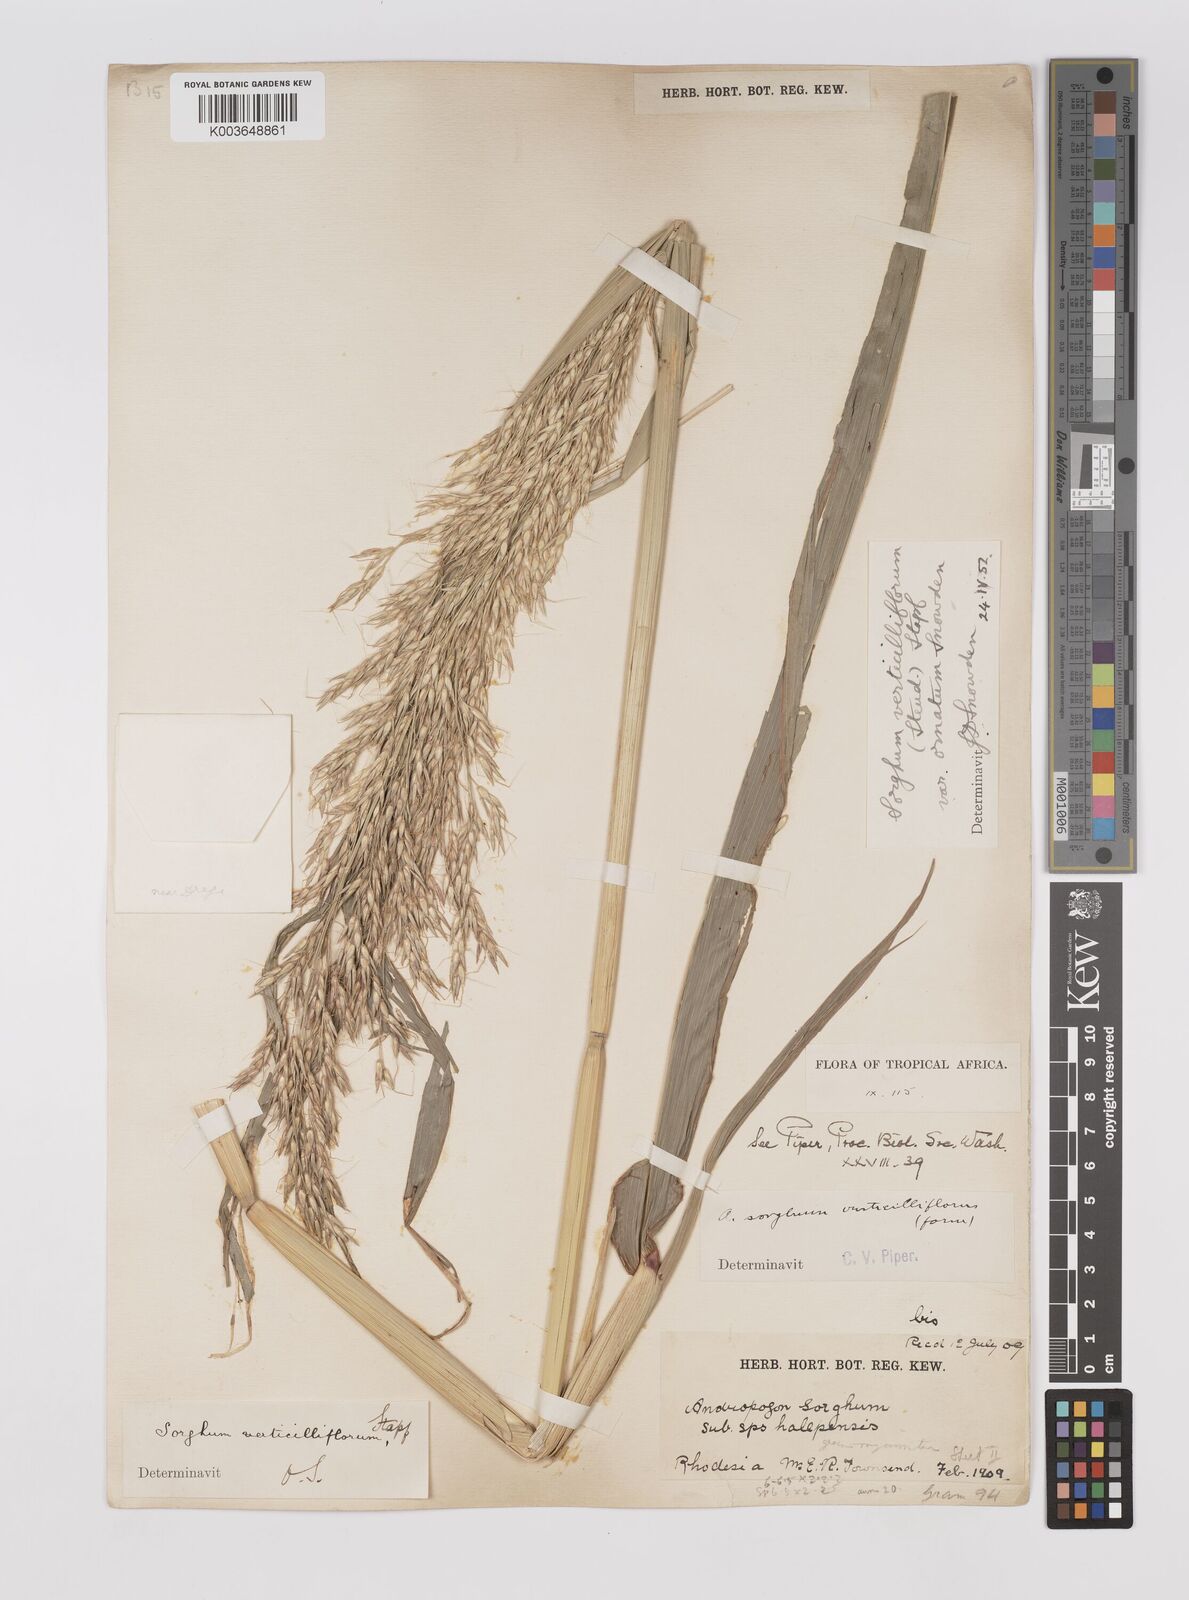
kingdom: Plantae
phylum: Tracheophyta
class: Liliopsida
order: Poales
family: Poaceae
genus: Sorghum
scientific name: Sorghum arundinaceum
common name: Sorghum
